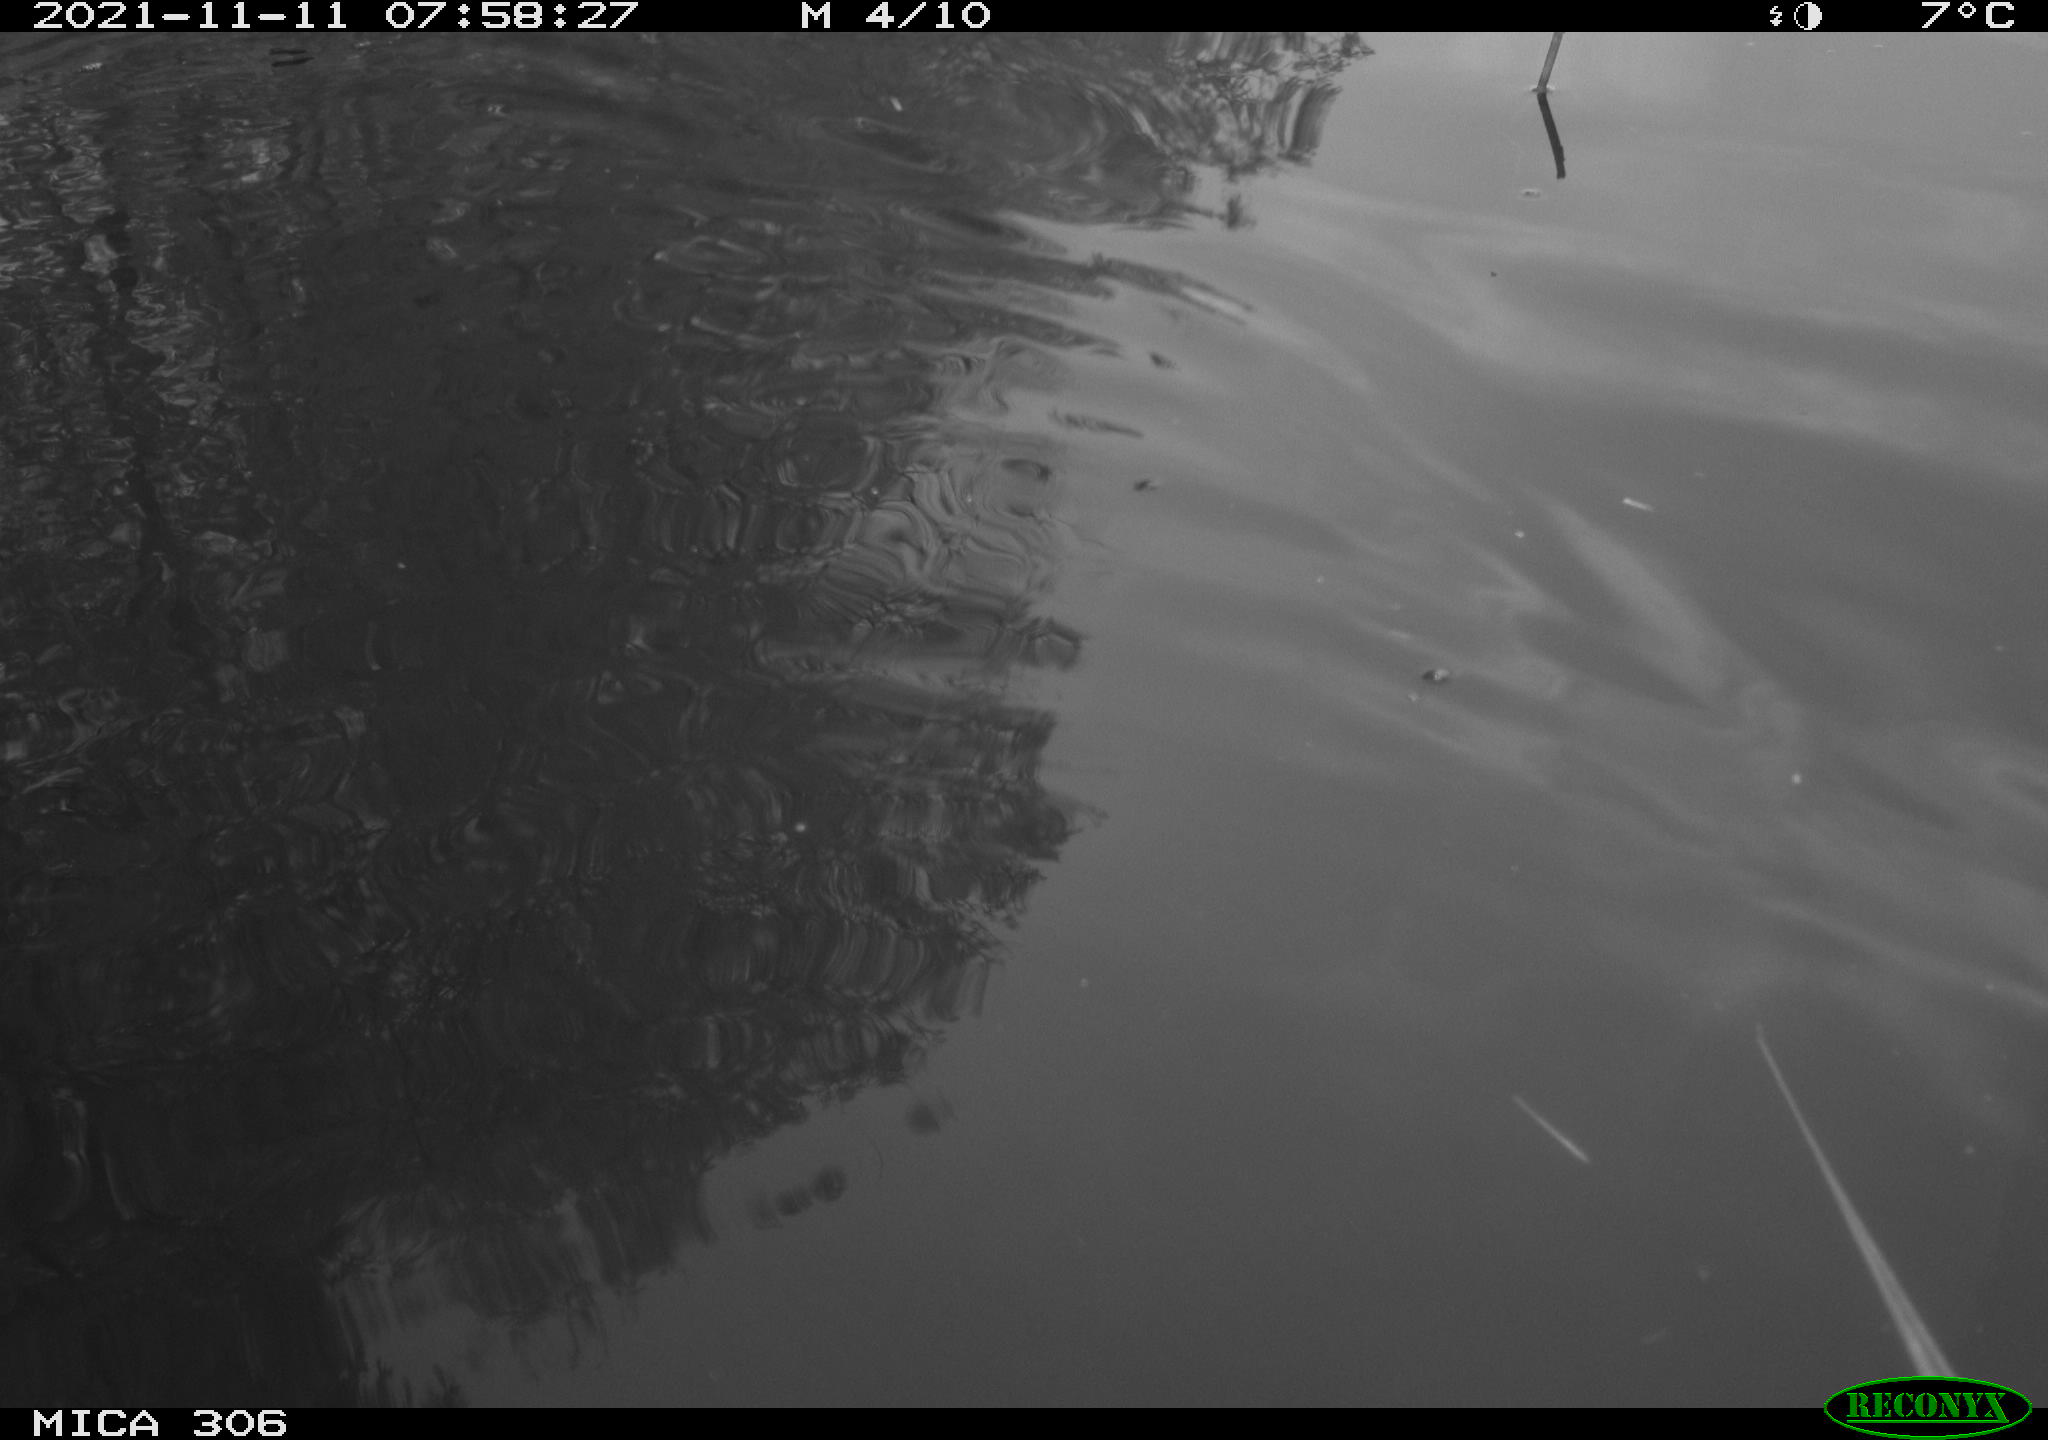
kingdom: Animalia
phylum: Chordata
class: Aves
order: Gruiformes
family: Rallidae
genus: Fulica
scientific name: Fulica atra
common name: Eurasian coot
